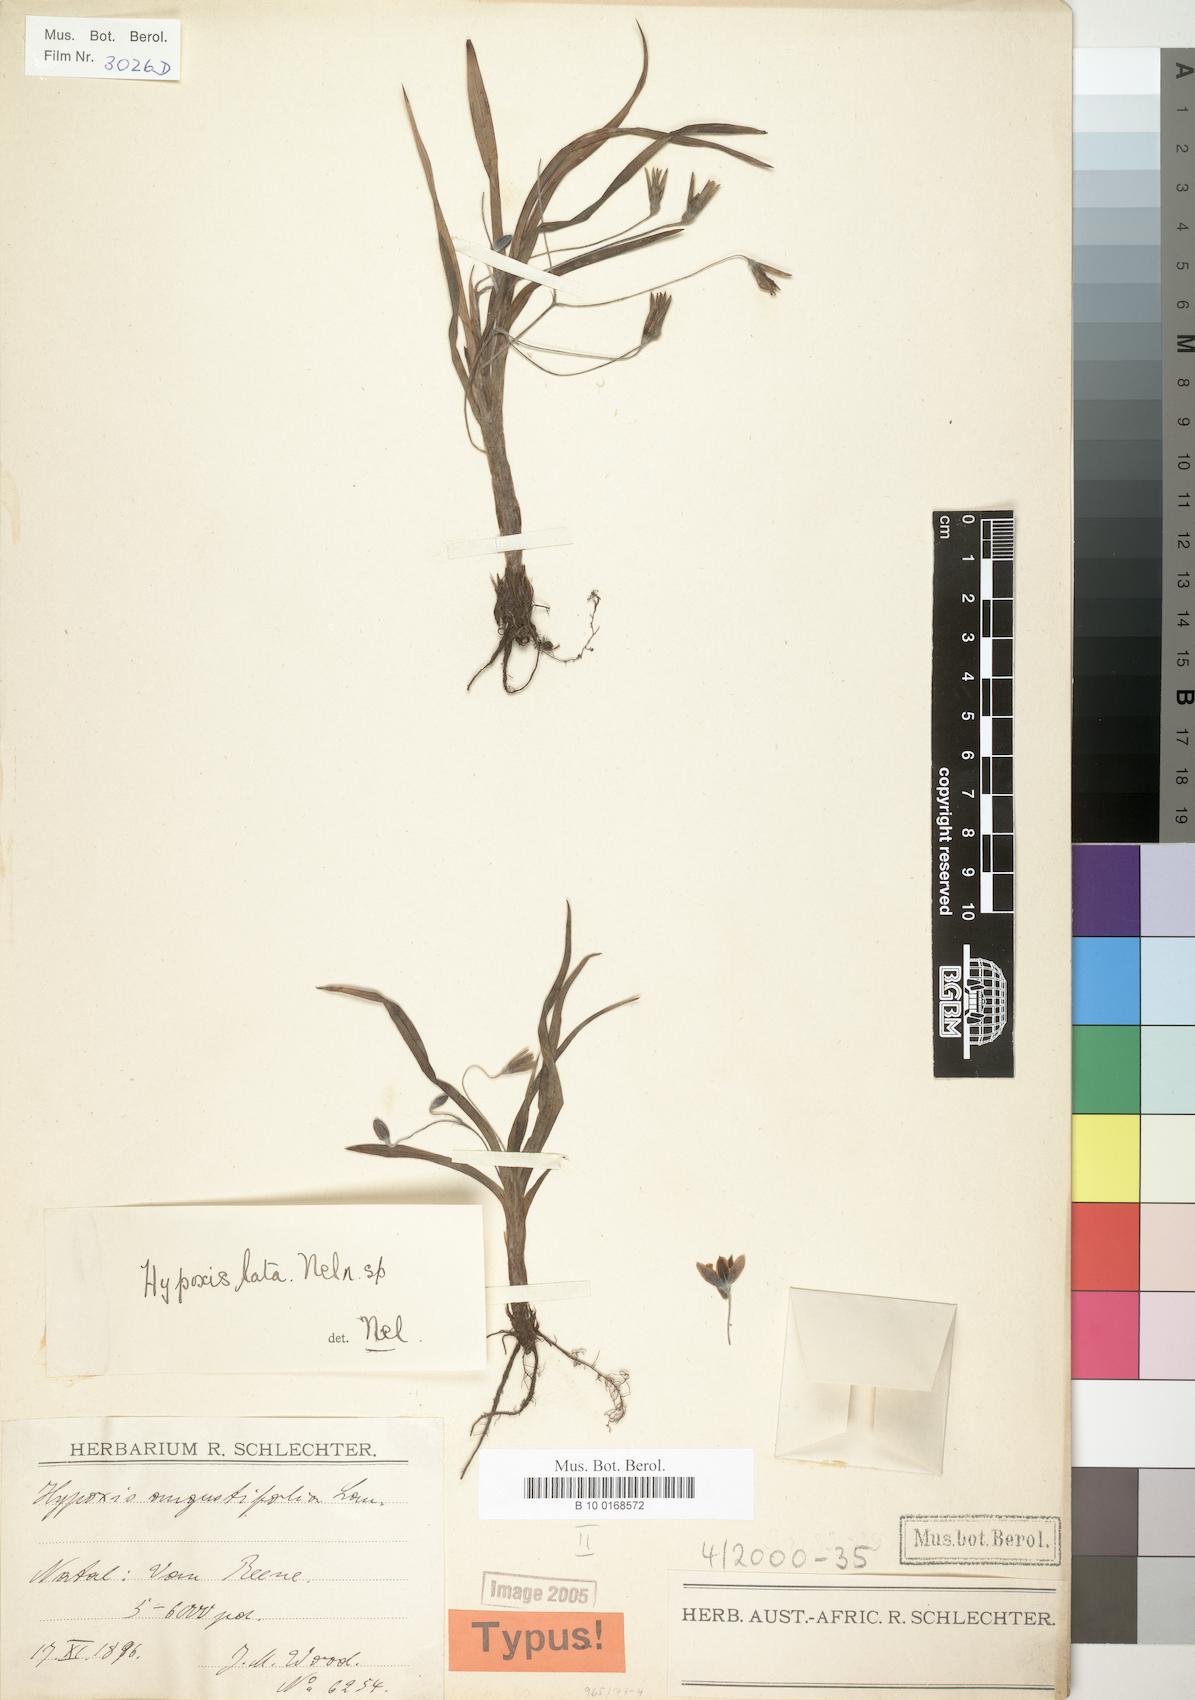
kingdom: Plantae
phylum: Tracheophyta
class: Liliopsida
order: Asparagales
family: Hypoxidaceae
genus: Hypoxis
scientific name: Hypoxis lata
